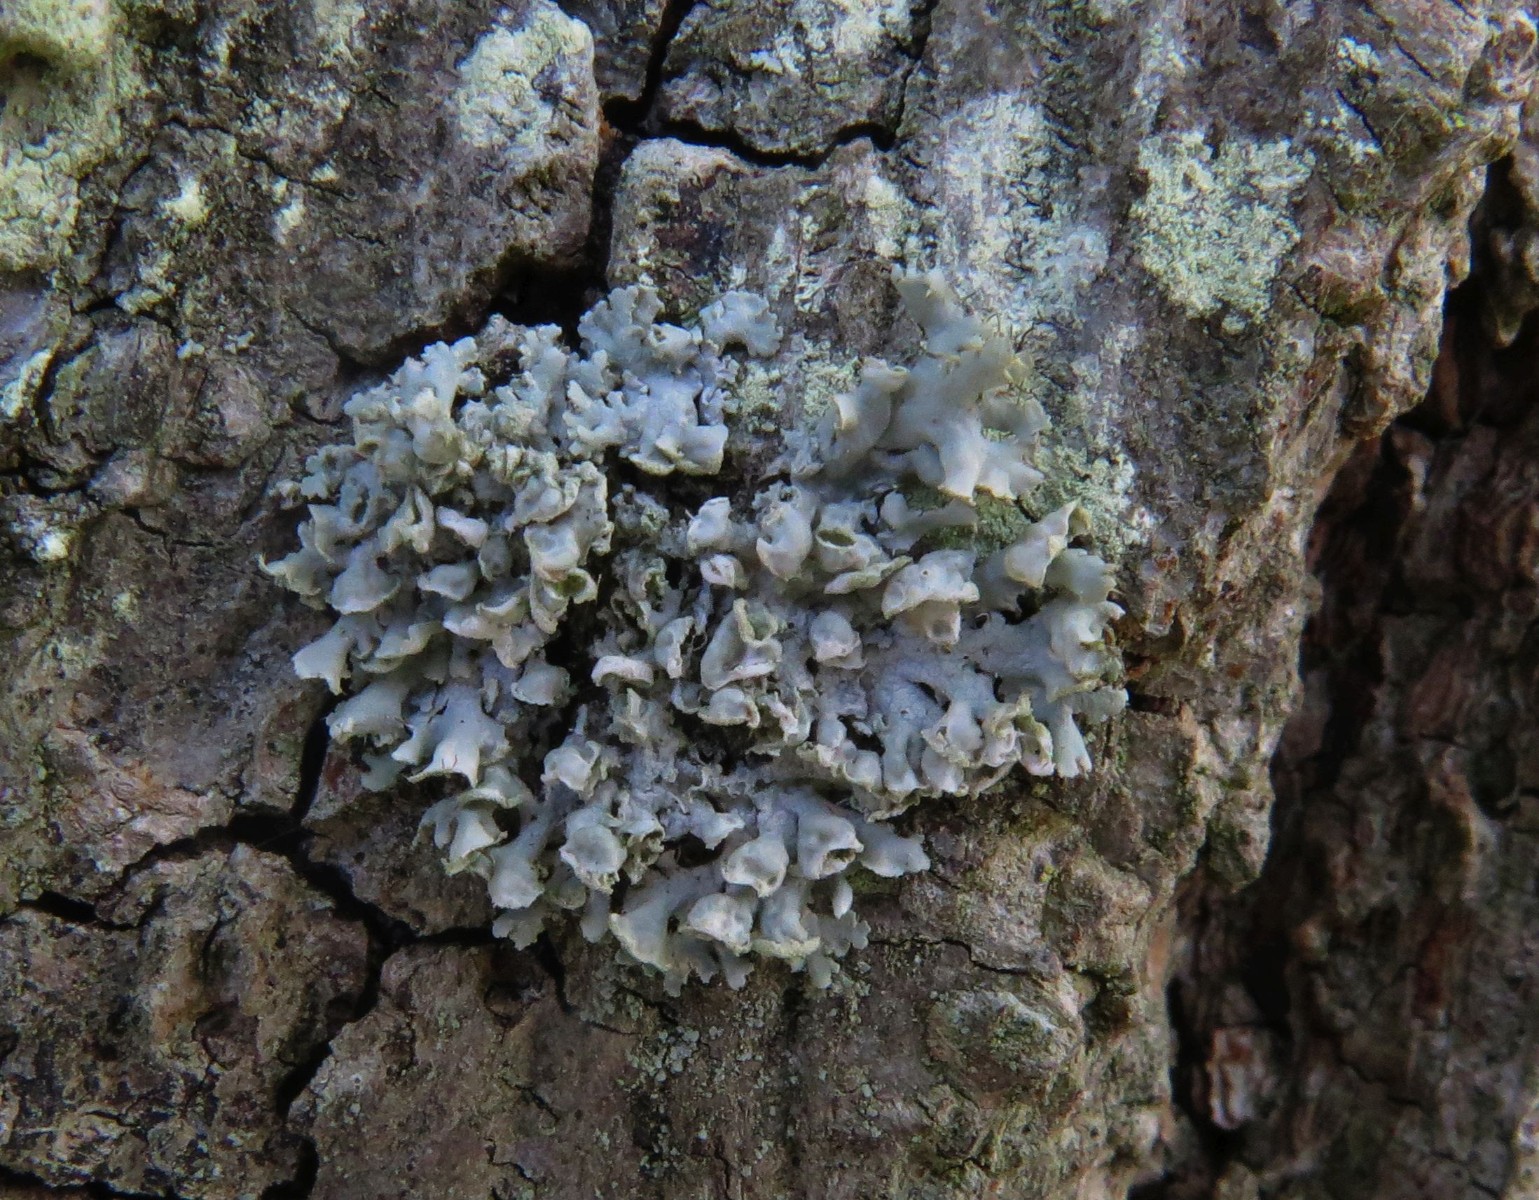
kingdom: Fungi
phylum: Ascomycota
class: Lecanoromycetes
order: Caliciales
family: Physciaceae
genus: Physcia
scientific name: Physcia adscendens
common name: hætte-rosetlav
